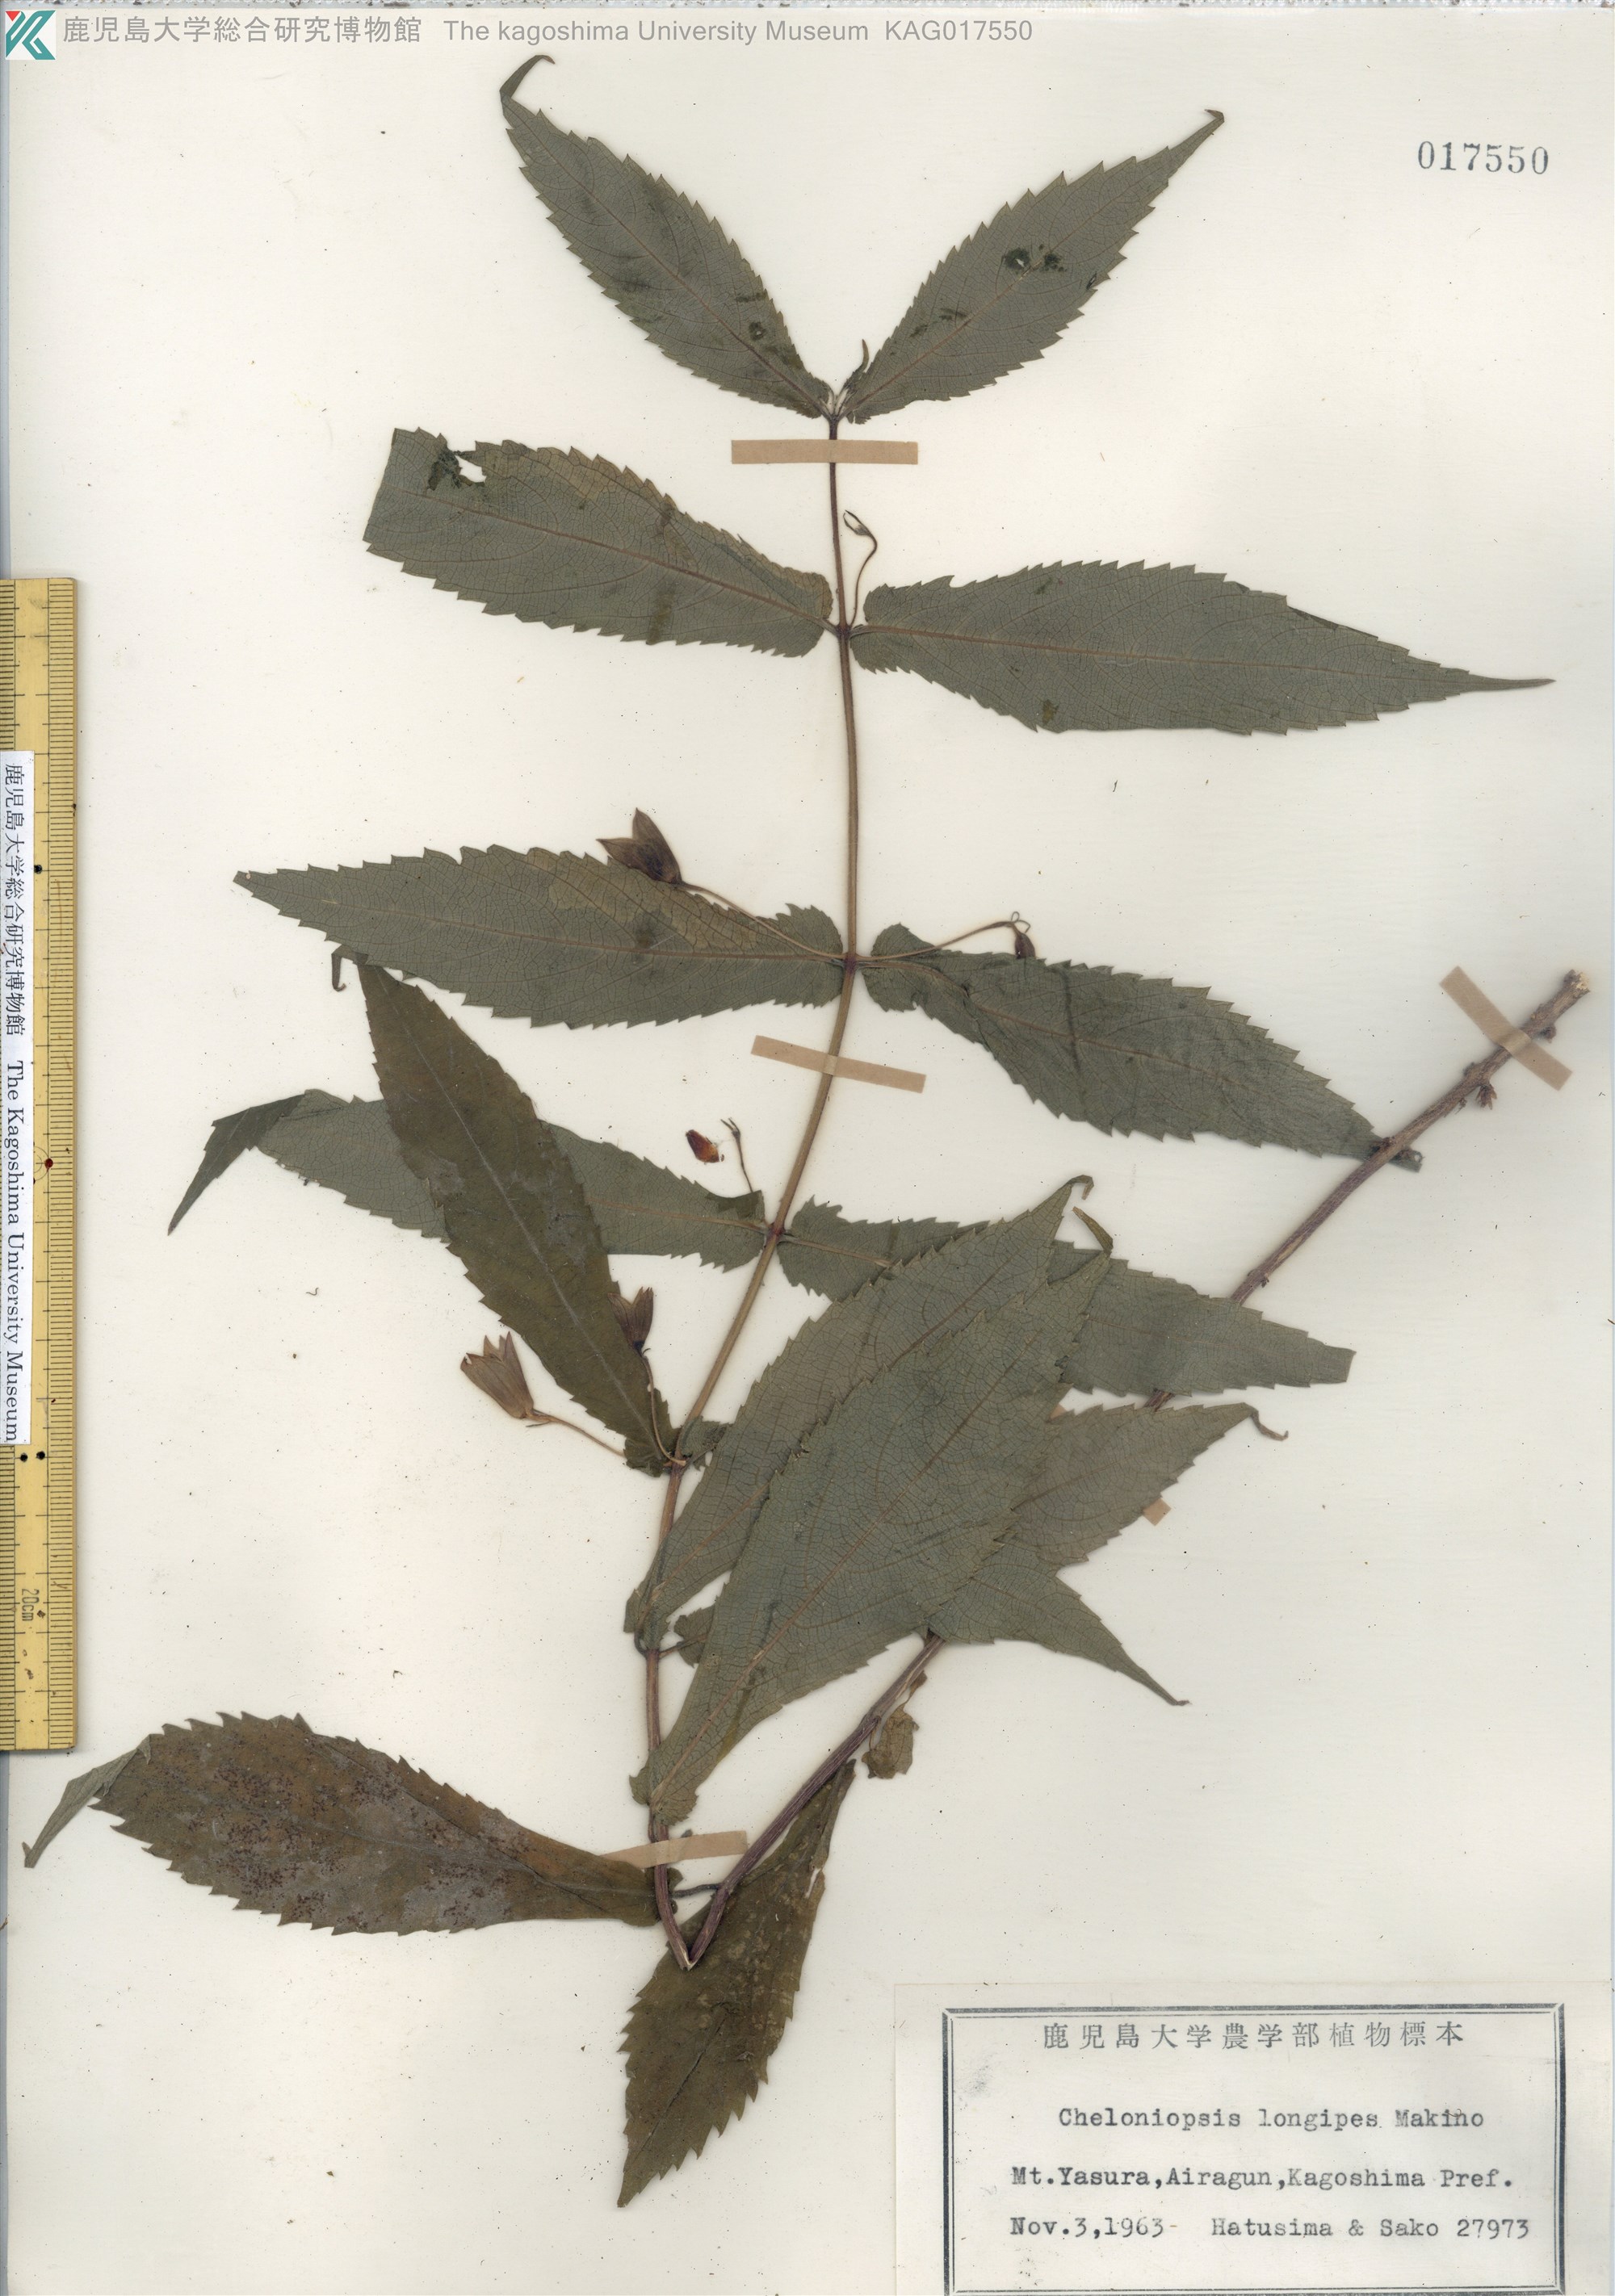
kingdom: Plantae
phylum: Tracheophyta
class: Magnoliopsida
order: Lamiales
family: Lamiaceae
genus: Chelonopsis
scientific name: Chelonopsis longipes
